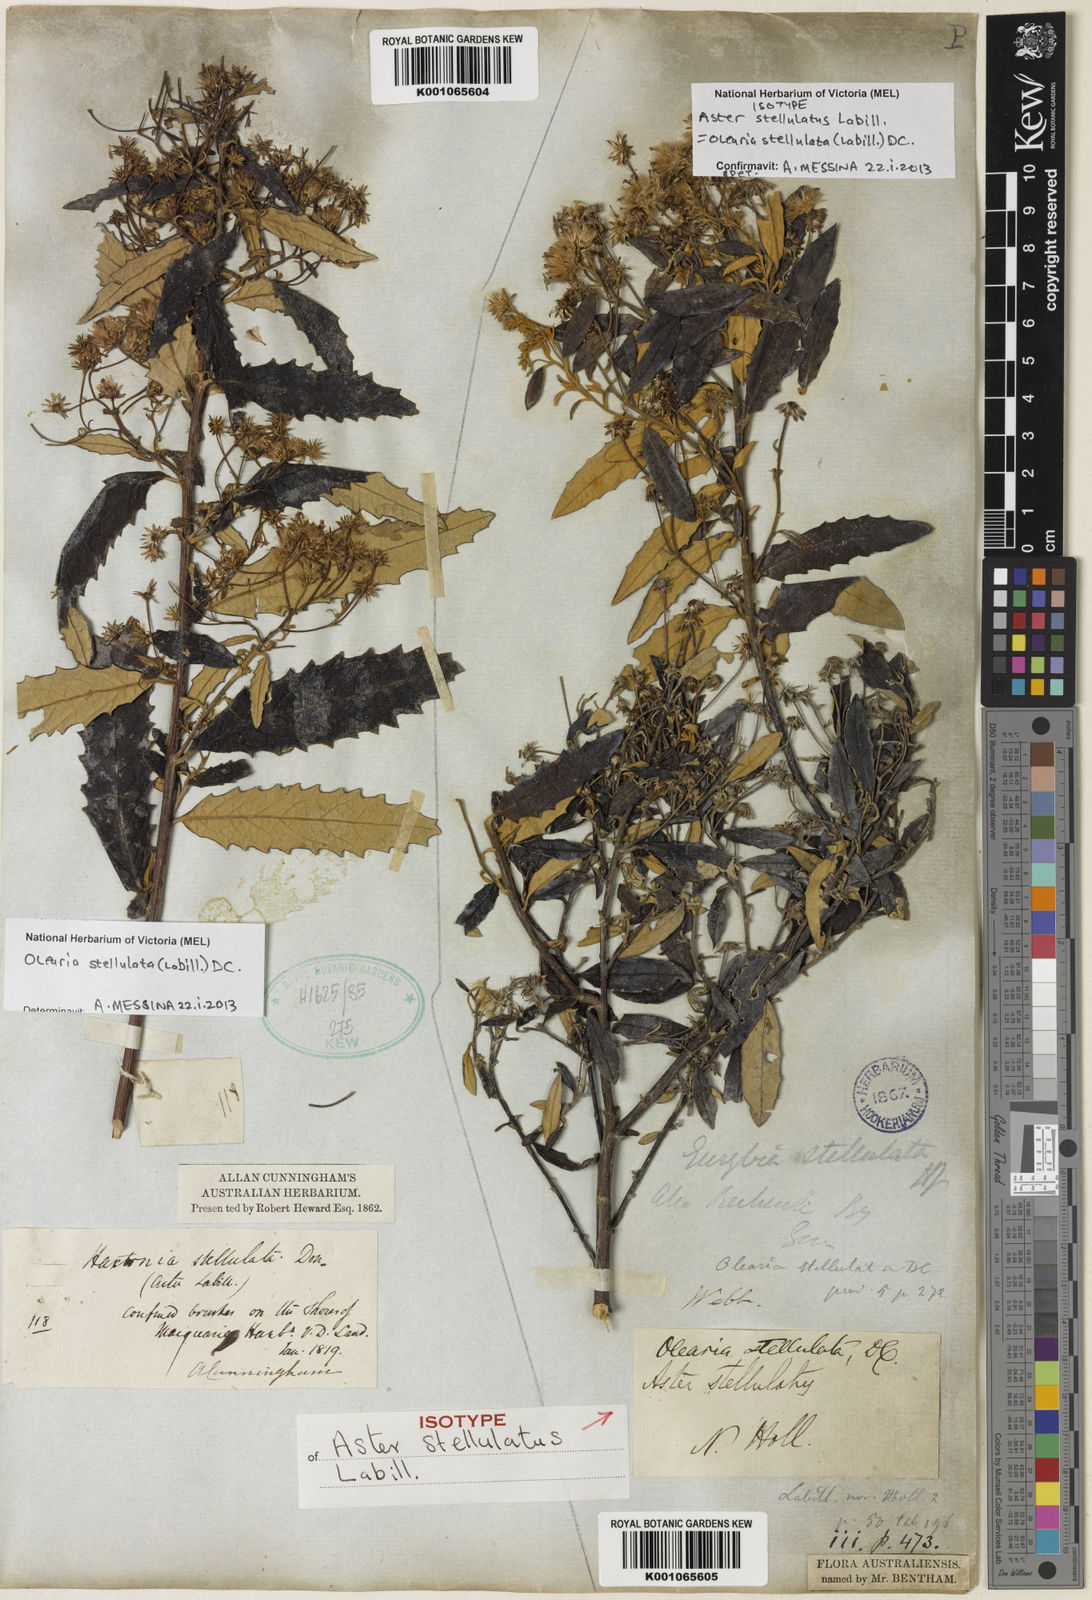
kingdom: Plantae
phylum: Tracheophyta
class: Magnoliopsida
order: Asterales
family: Asteraceae
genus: Olearia
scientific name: Olearia stellulata
